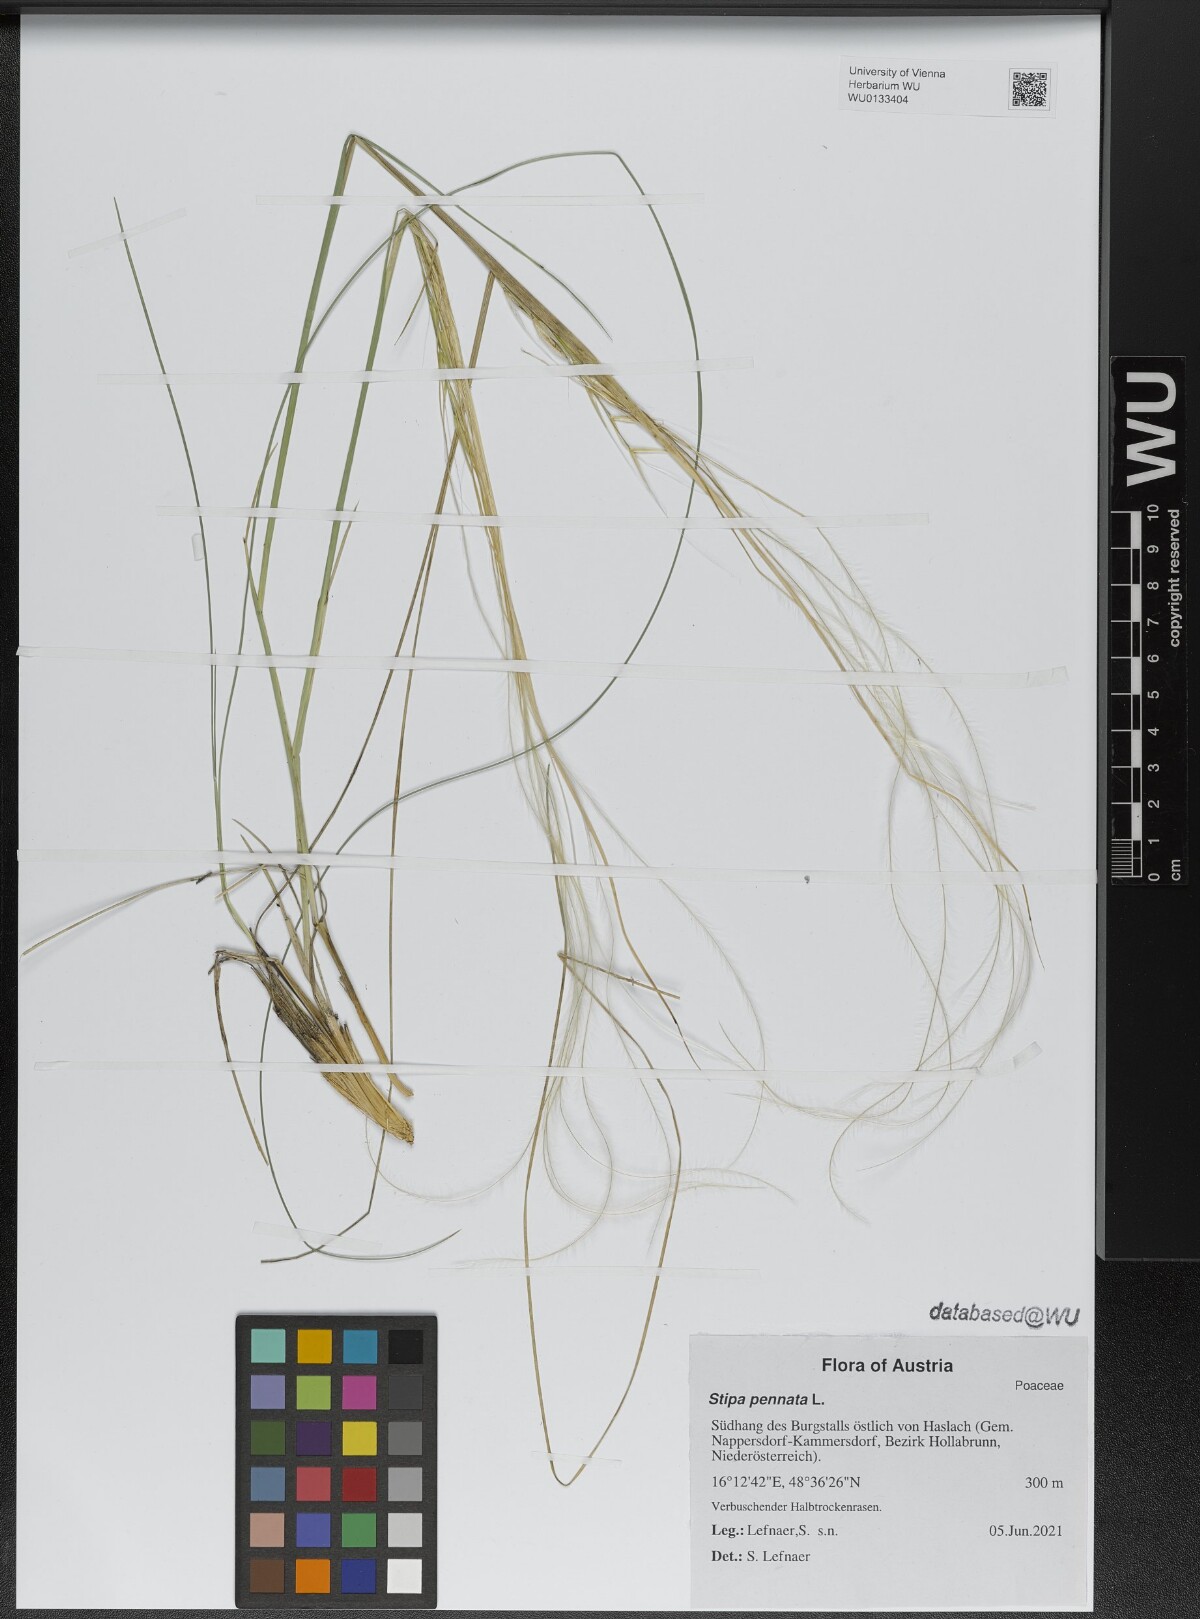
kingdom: Plantae
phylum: Tracheophyta
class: Liliopsida
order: Poales
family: Poaceae
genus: Stipa
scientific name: Stipa pennata
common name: European feather grass
